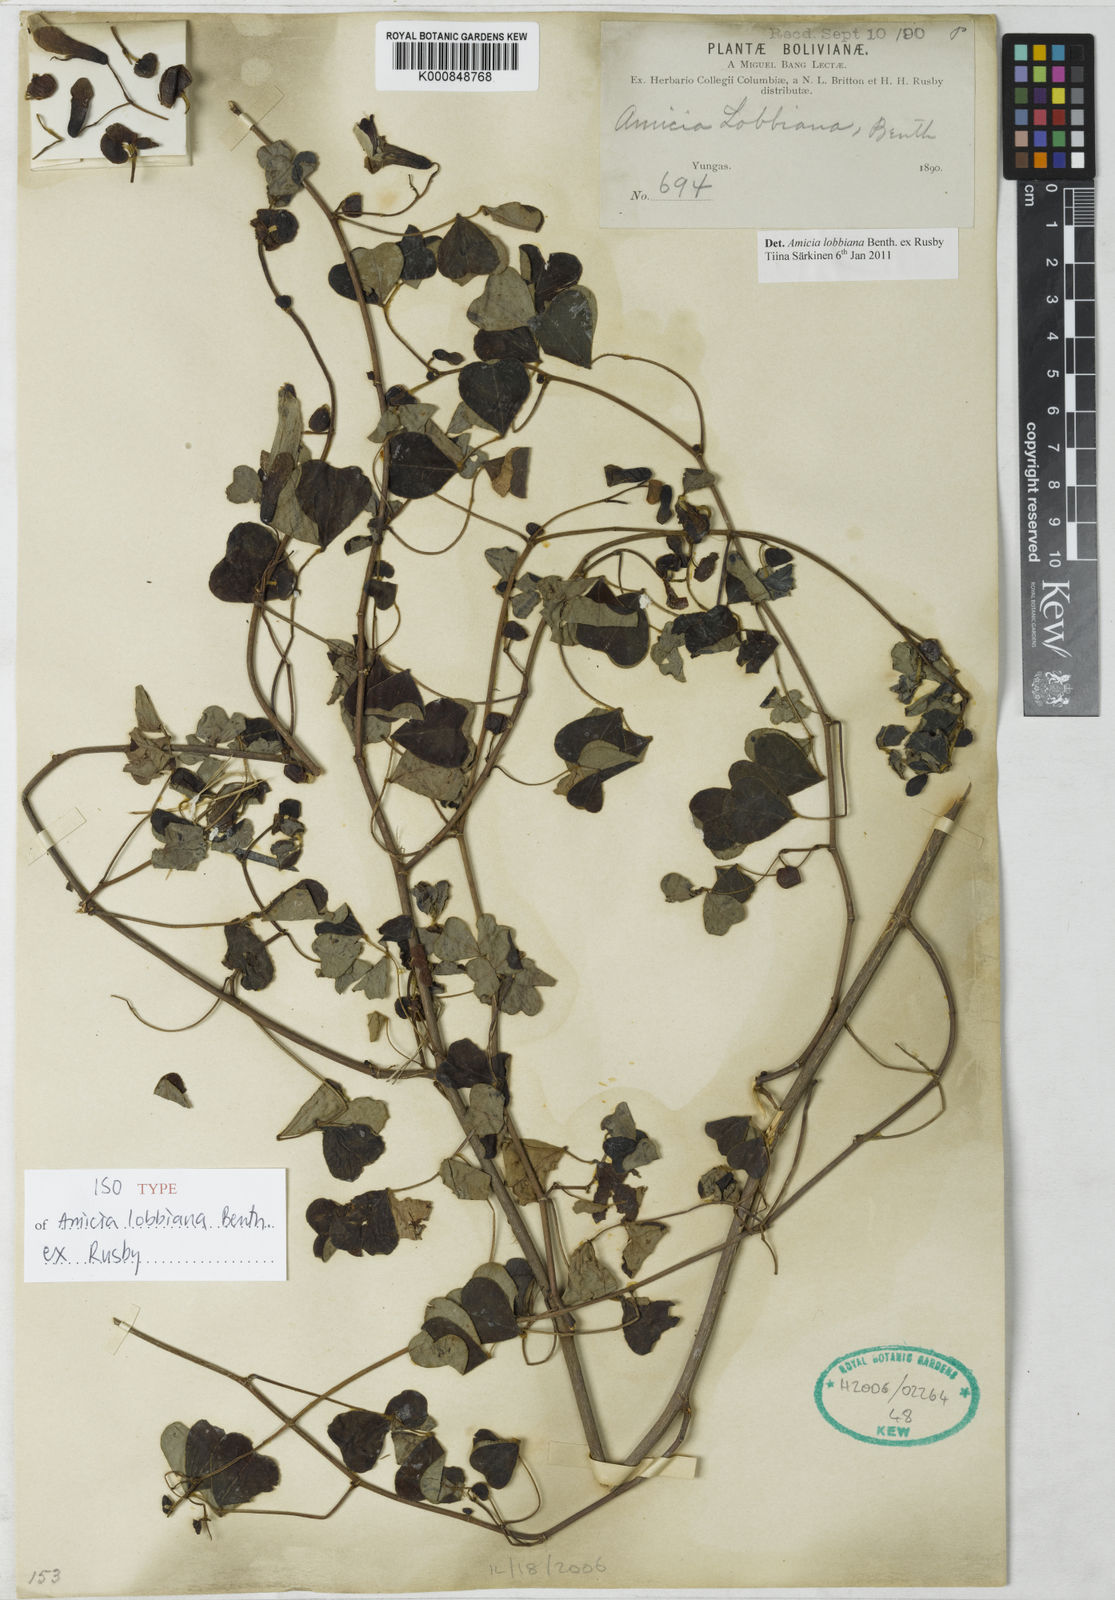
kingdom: Plantae
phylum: Tracheophyta
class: Magnoliopsida
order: Fabales
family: Fabaceae
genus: Amicia
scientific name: Amicia lobbiana
